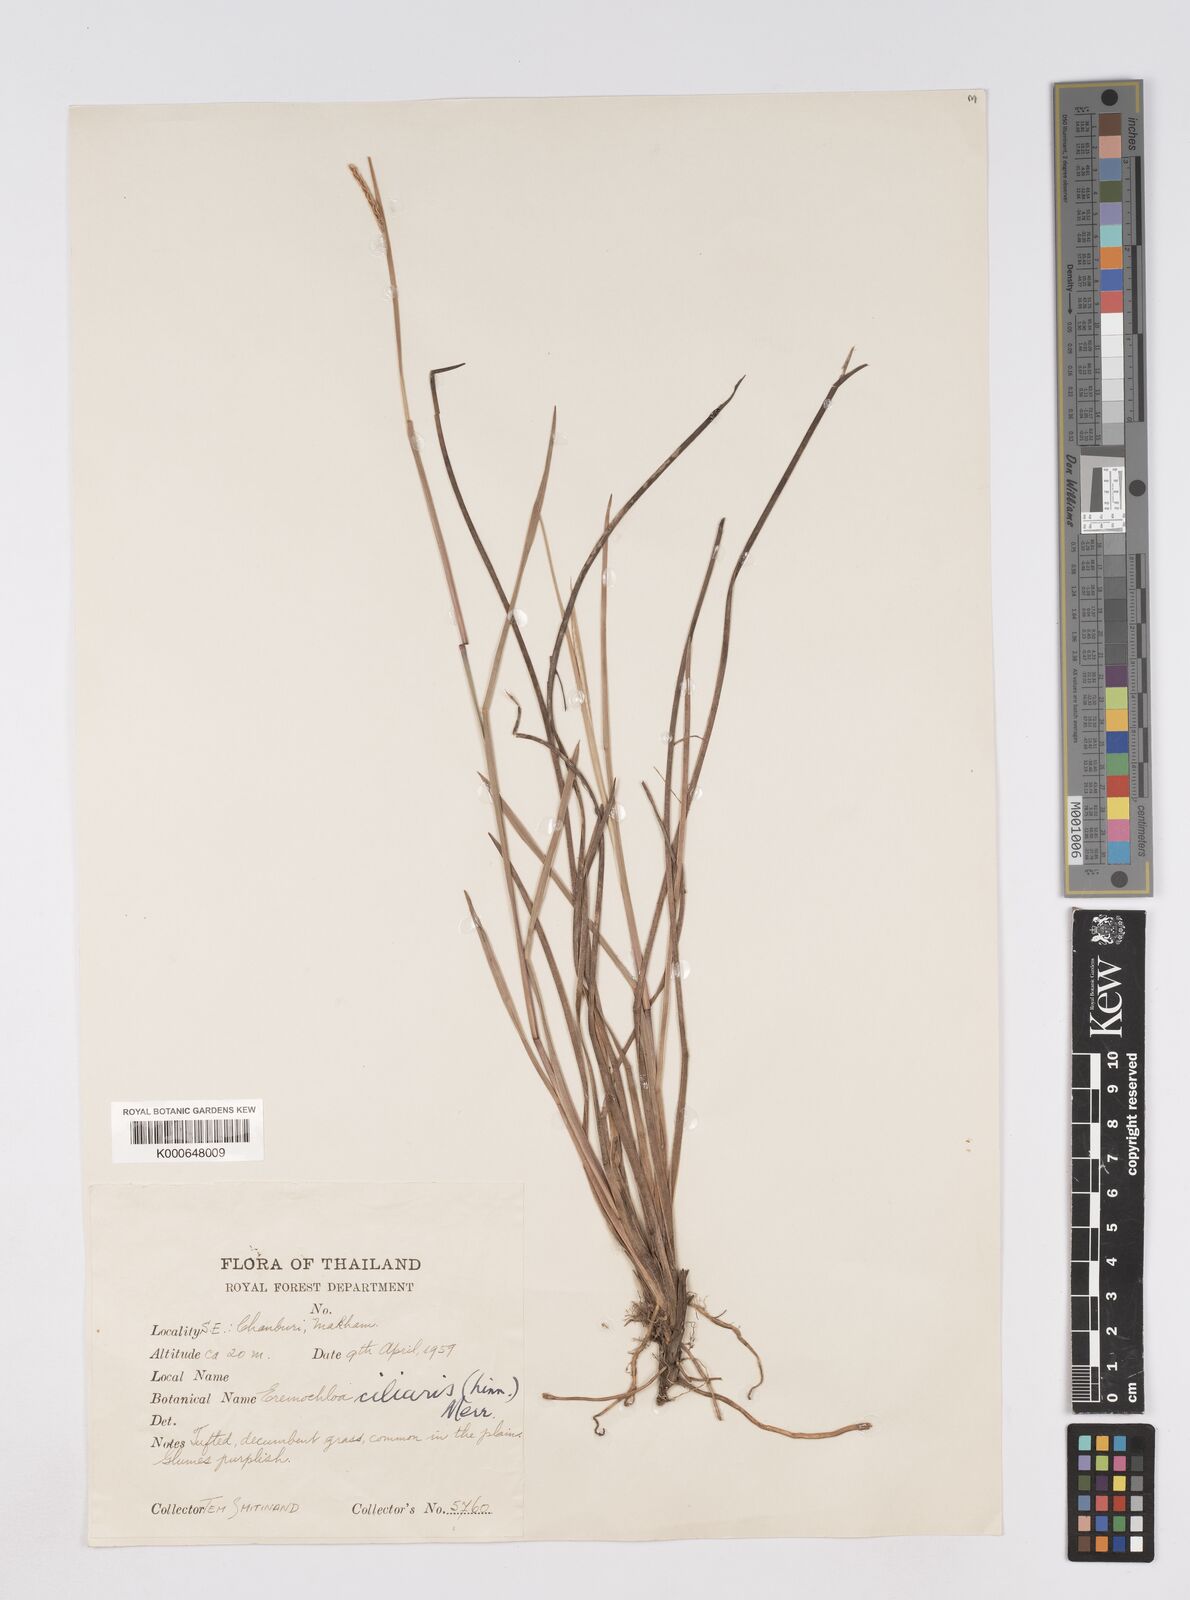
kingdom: Plantae
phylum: Tracheophyta
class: Liliopsida
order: Poales
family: Poaceae
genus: Eremochloa
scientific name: Eremochloa ciliaris
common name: Fringed centipede grass
